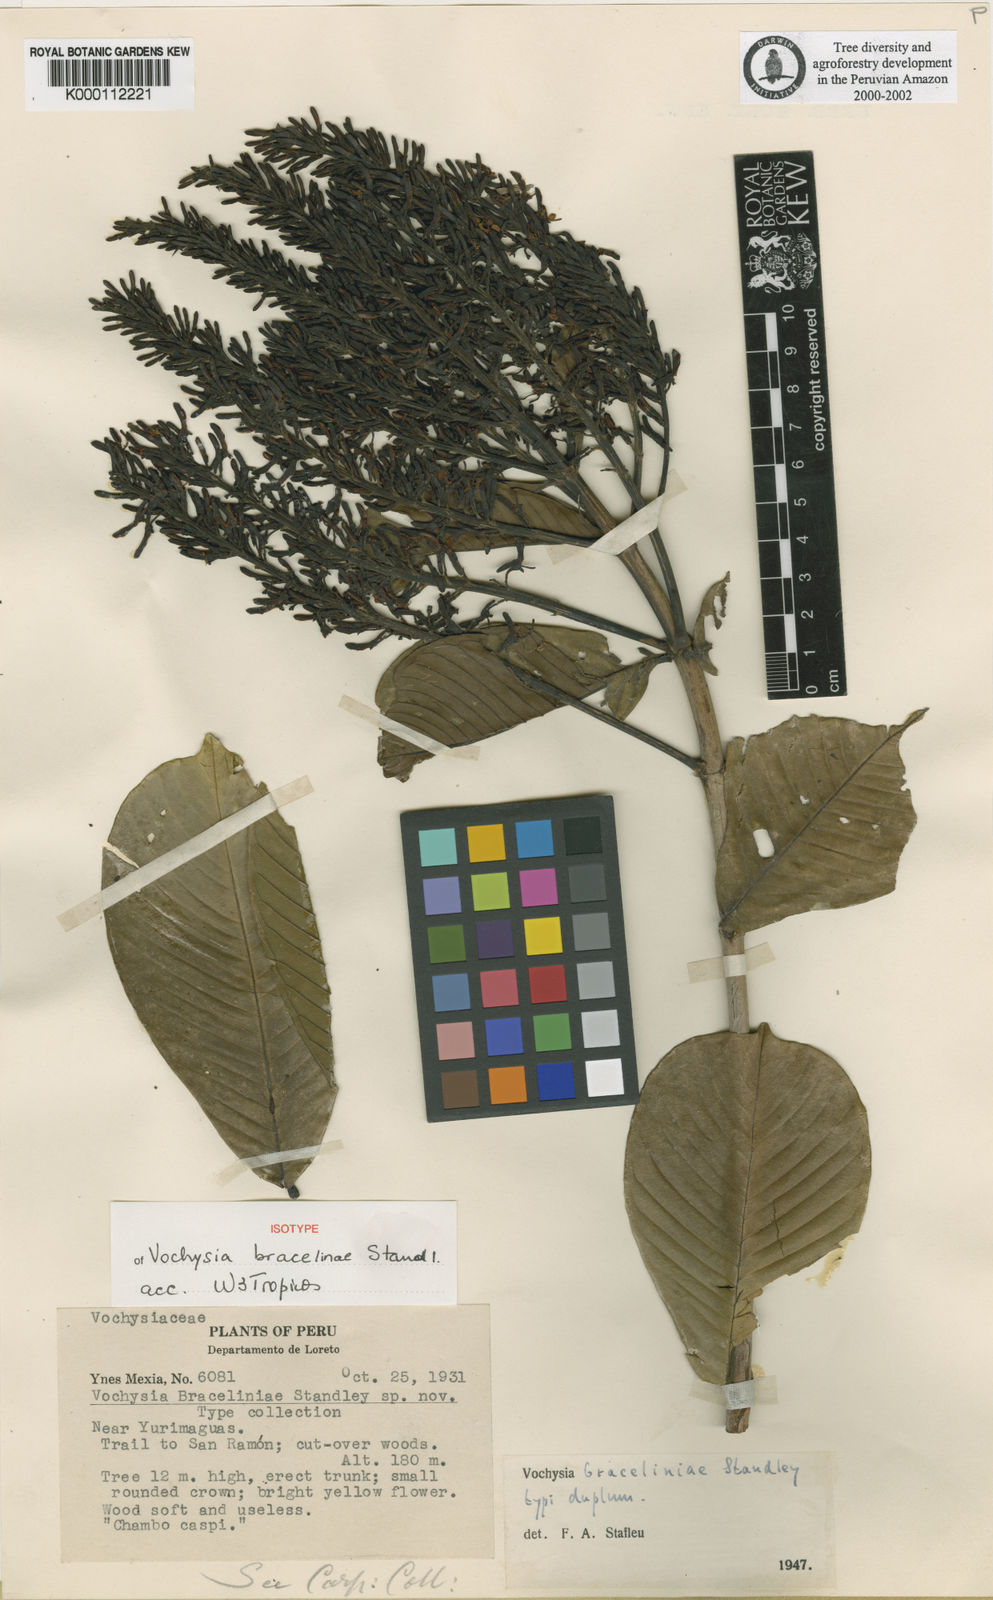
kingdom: Plantae
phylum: Tracheophyta
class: Magnoliopsida
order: Myrtales
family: Vochysiaceae
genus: Vochysia
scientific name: Vochysia braceliniae
